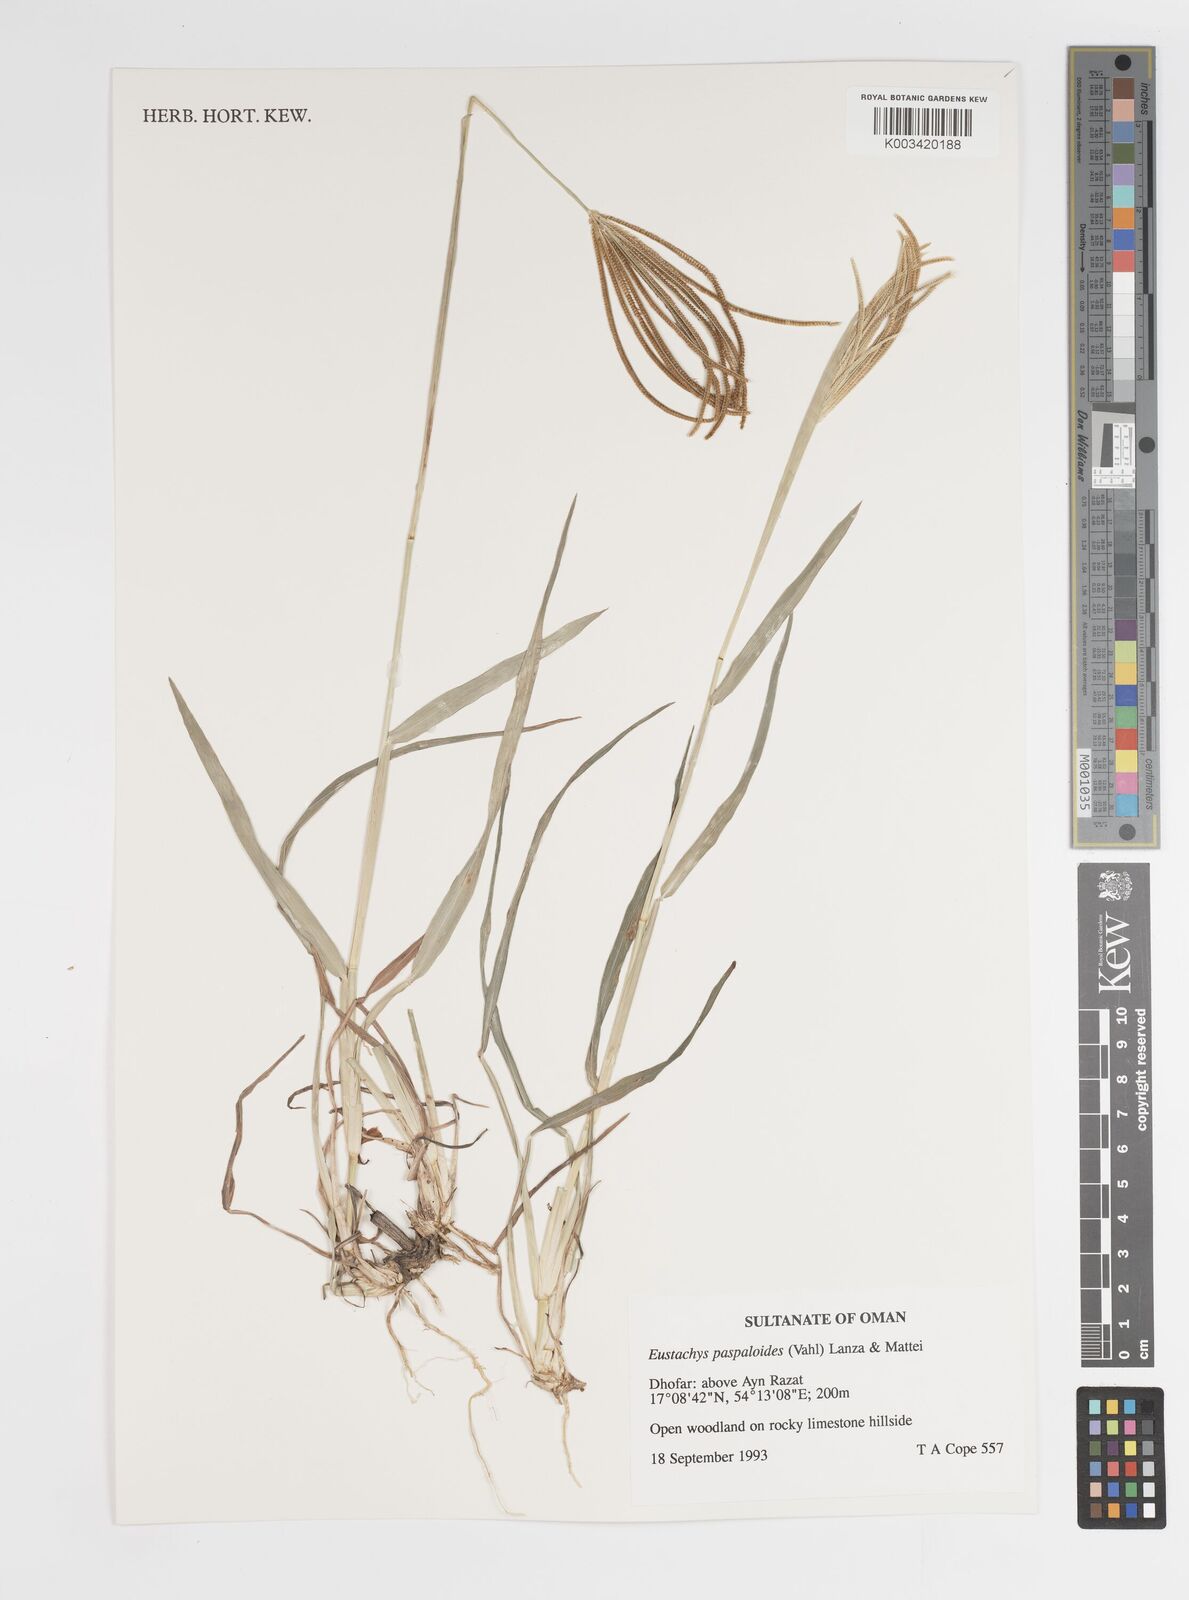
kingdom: Plantae
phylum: Tracheophyta
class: Liliopsida
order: Poales
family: Poaceae
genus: Eustachys
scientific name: Eustachys paspaloides
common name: Caribbean fingergrass
